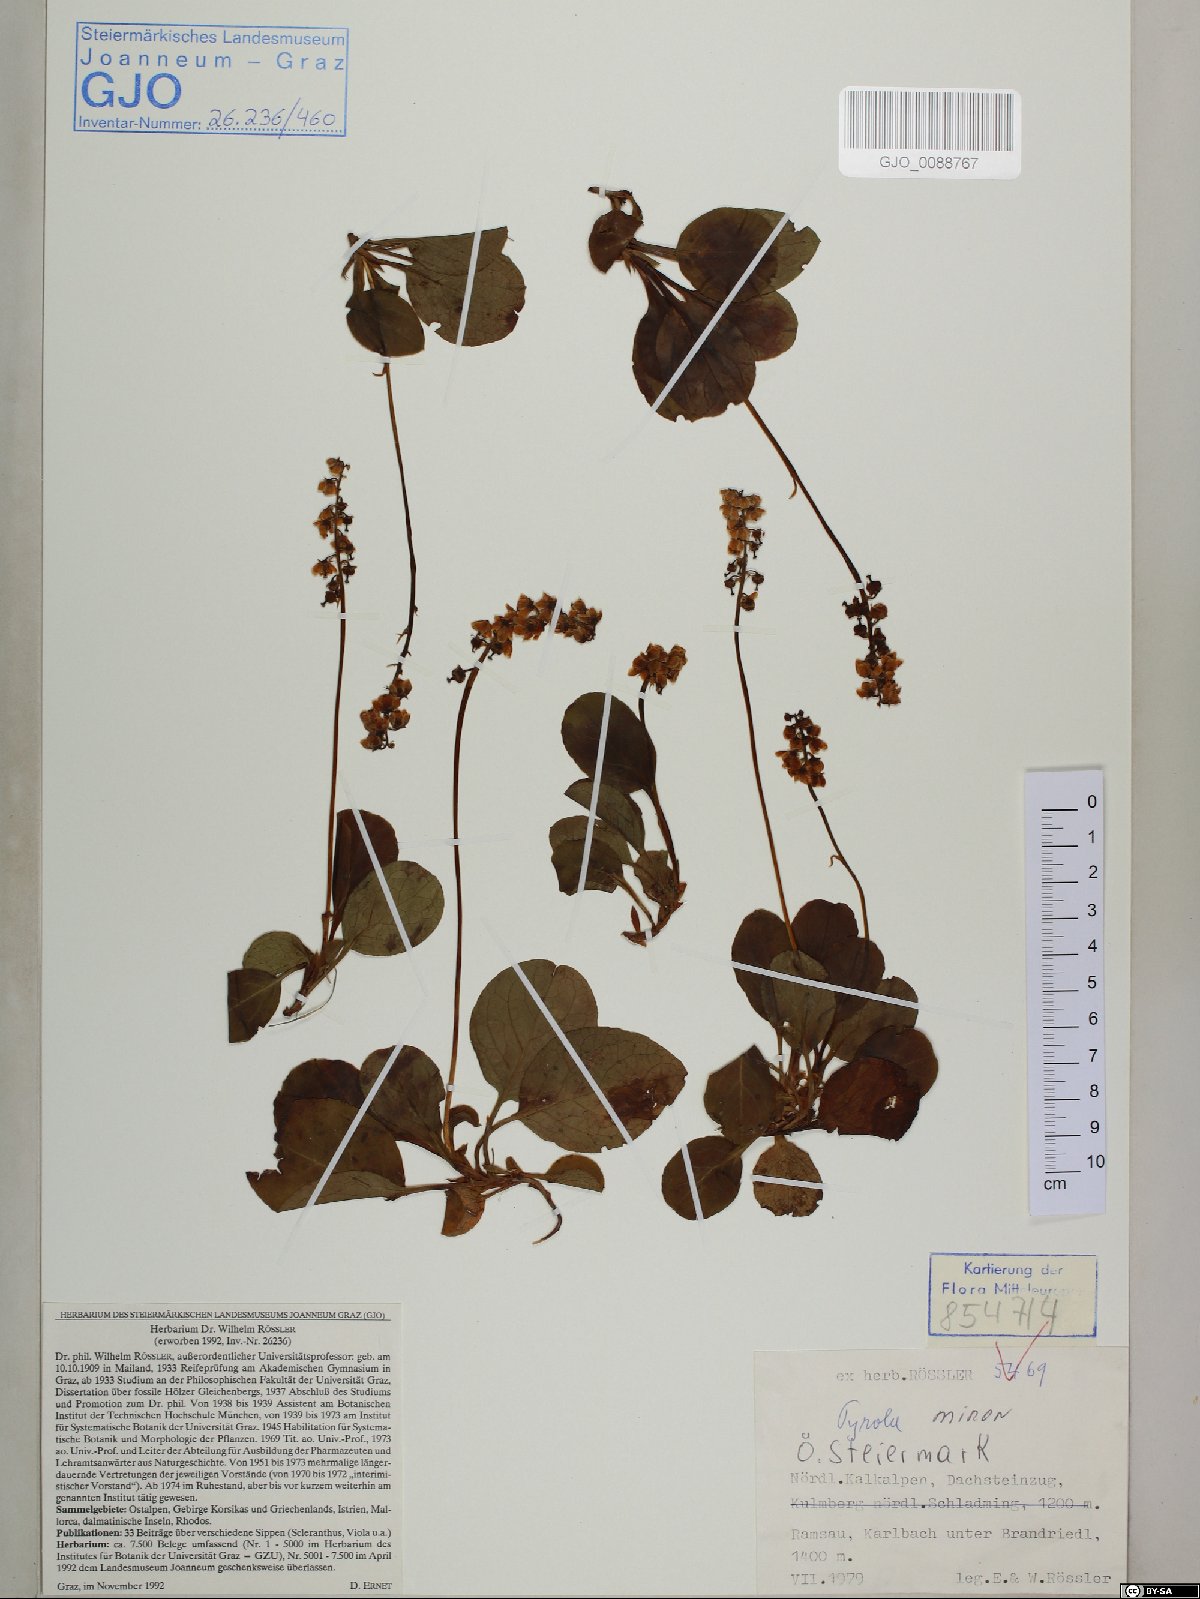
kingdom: Plantae
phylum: Tracheophyta
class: Magnoliopsida
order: Ericales
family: Ericaceae
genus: Pyrola
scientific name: Pyrola minor
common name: Common wintergreen
